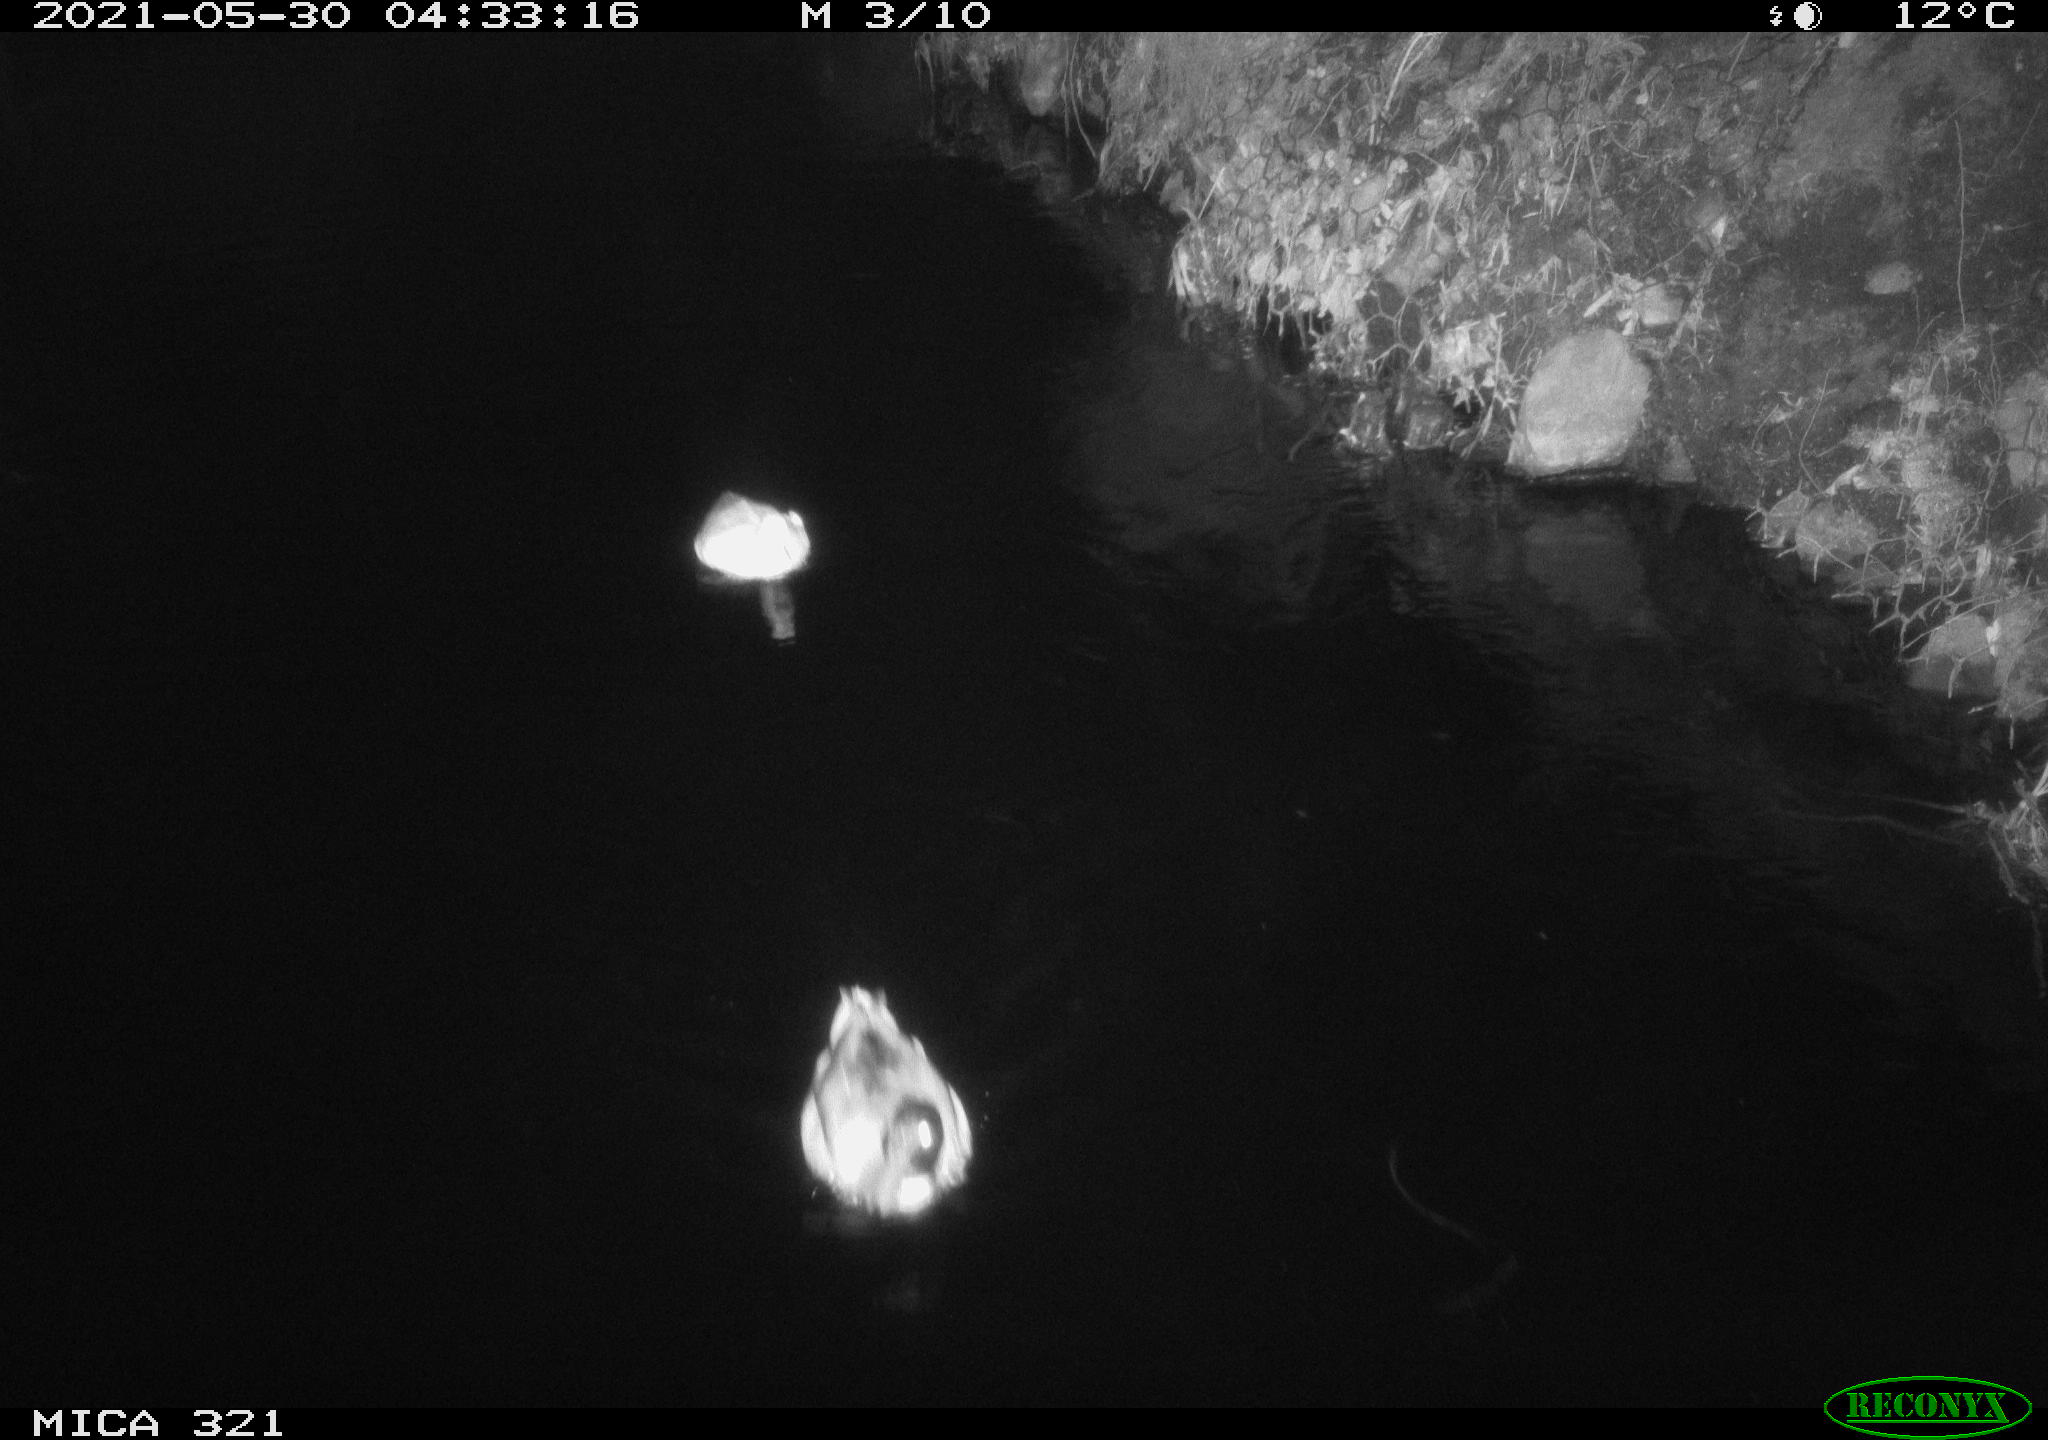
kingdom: Animalia
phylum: Chordata
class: Aves
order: Anseriformes
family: Anatidae
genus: Anas
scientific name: Anas platyrhynchos
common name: Mallard
